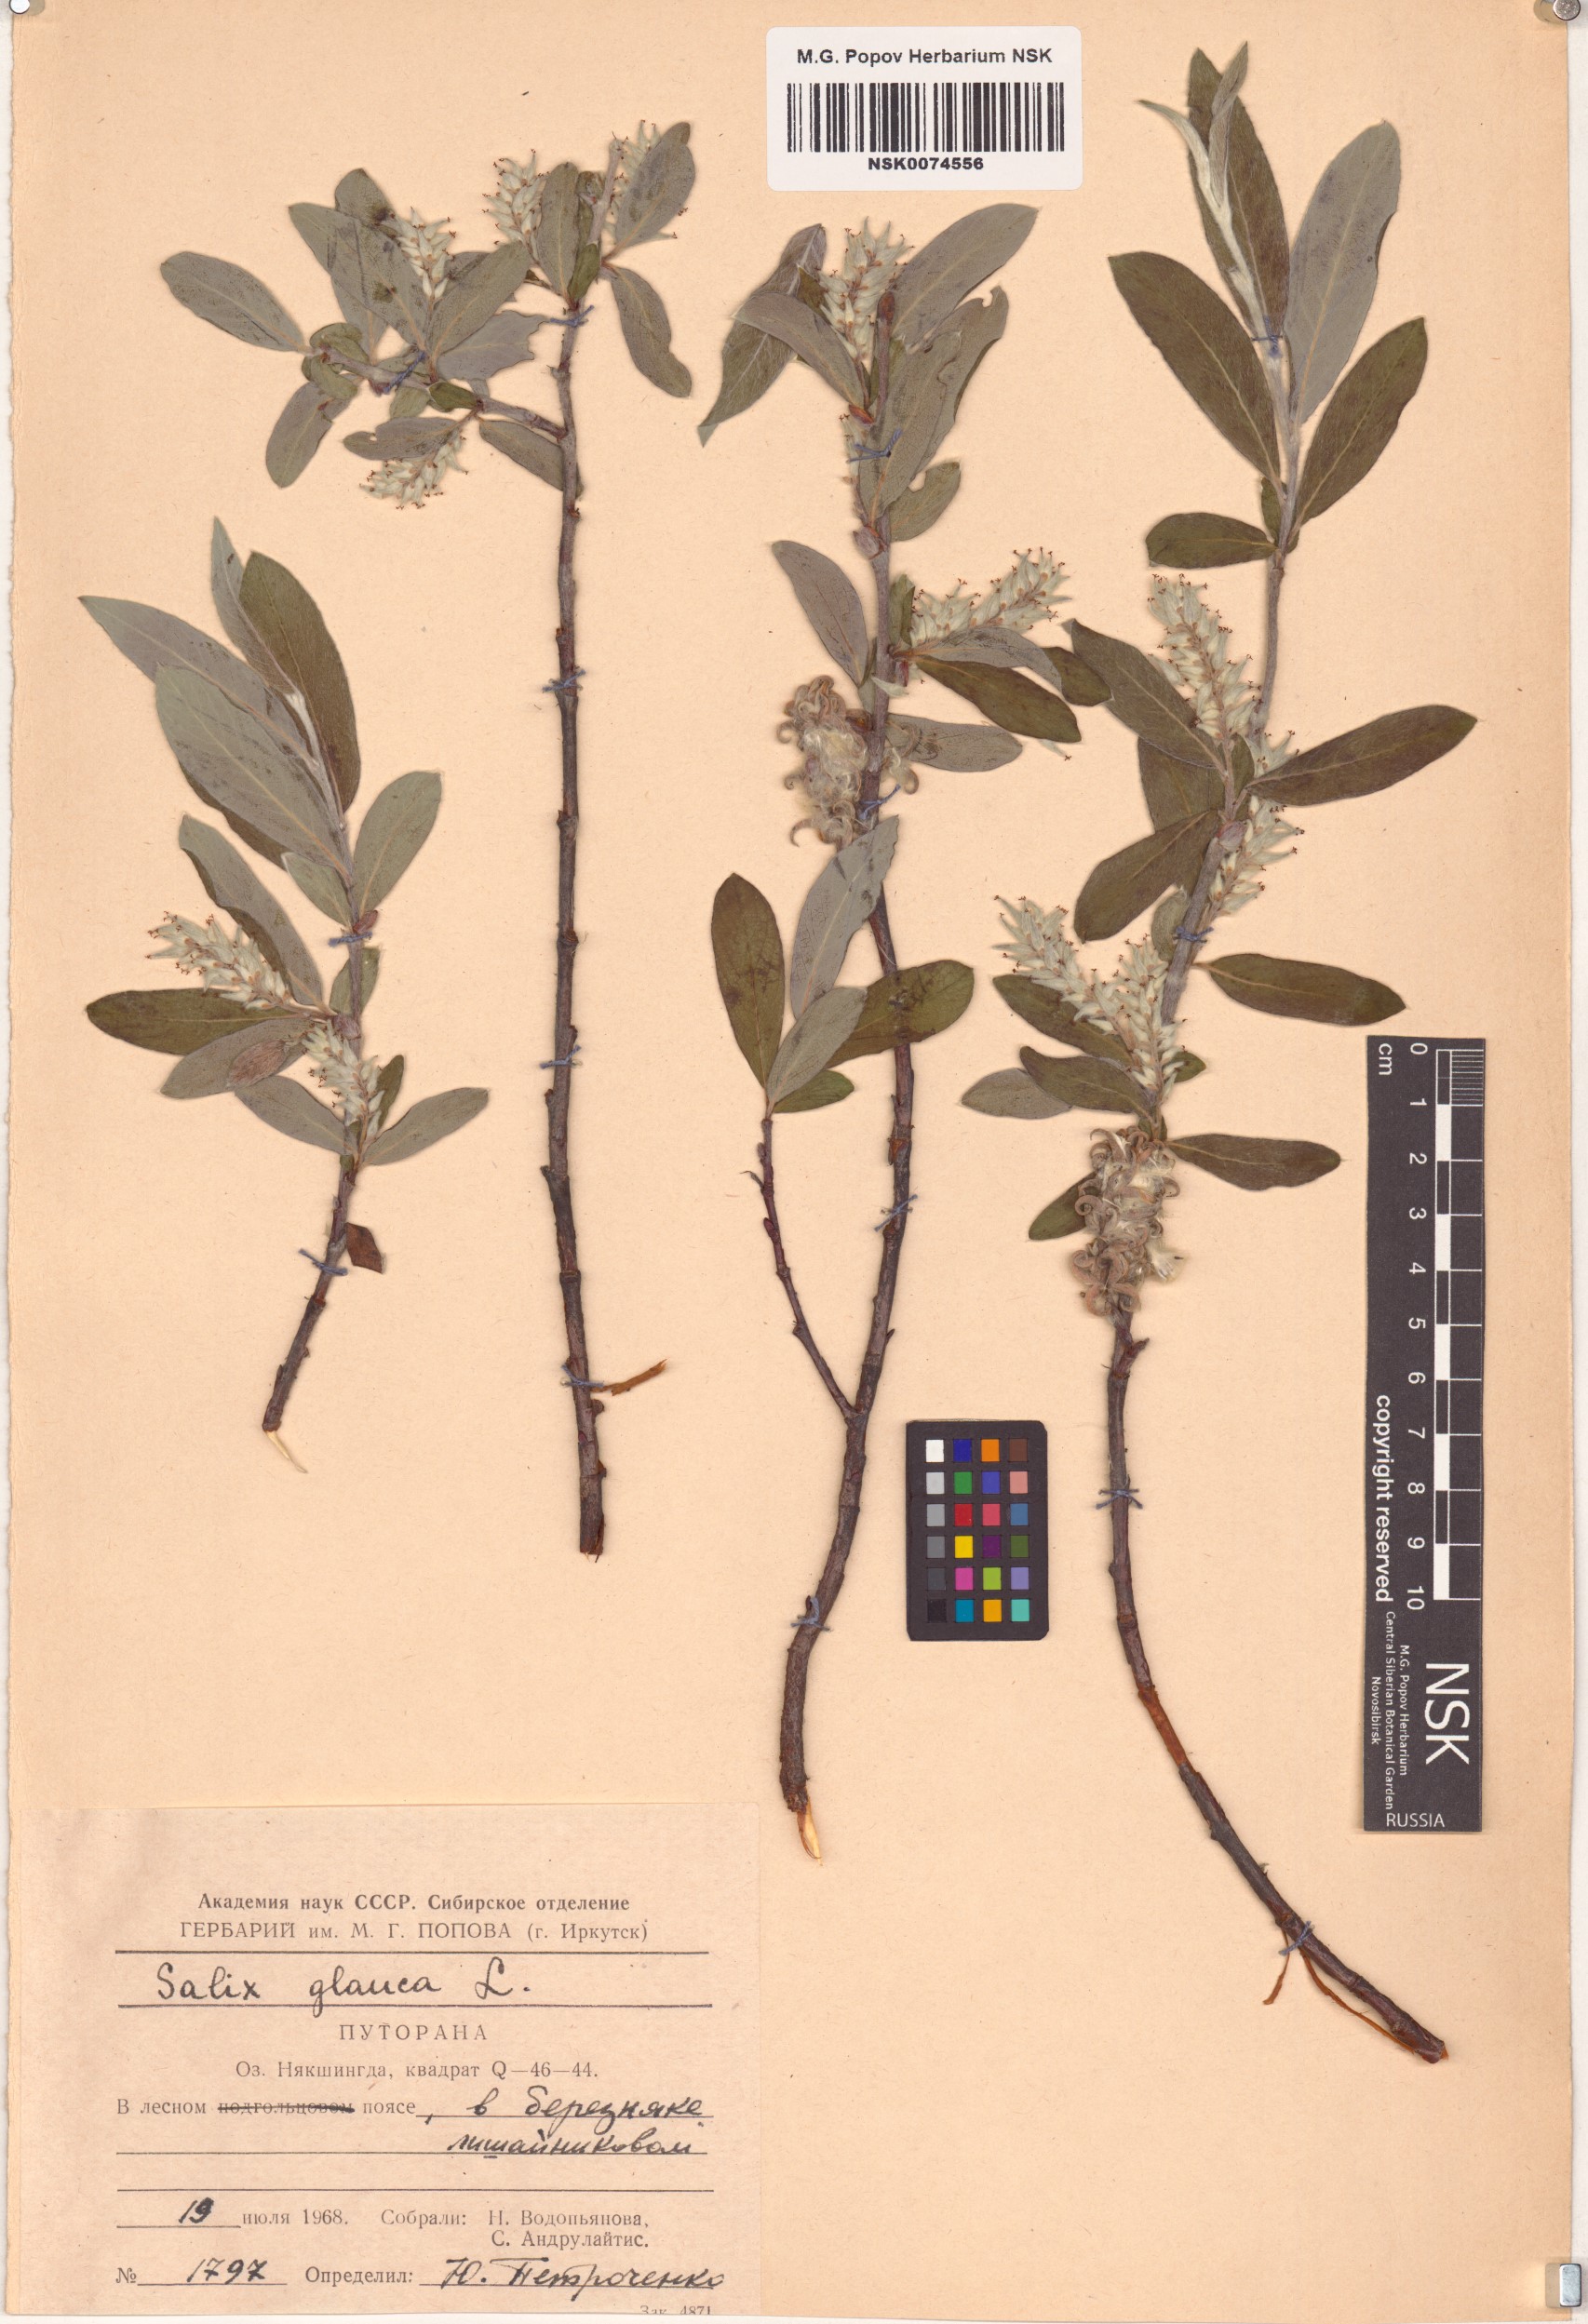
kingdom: Plantae
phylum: Tracheophyta
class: Magnoliopsida
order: Malpighiales
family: Salicaceae
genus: Salix
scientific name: Salix glauca
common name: Glaucous willow
